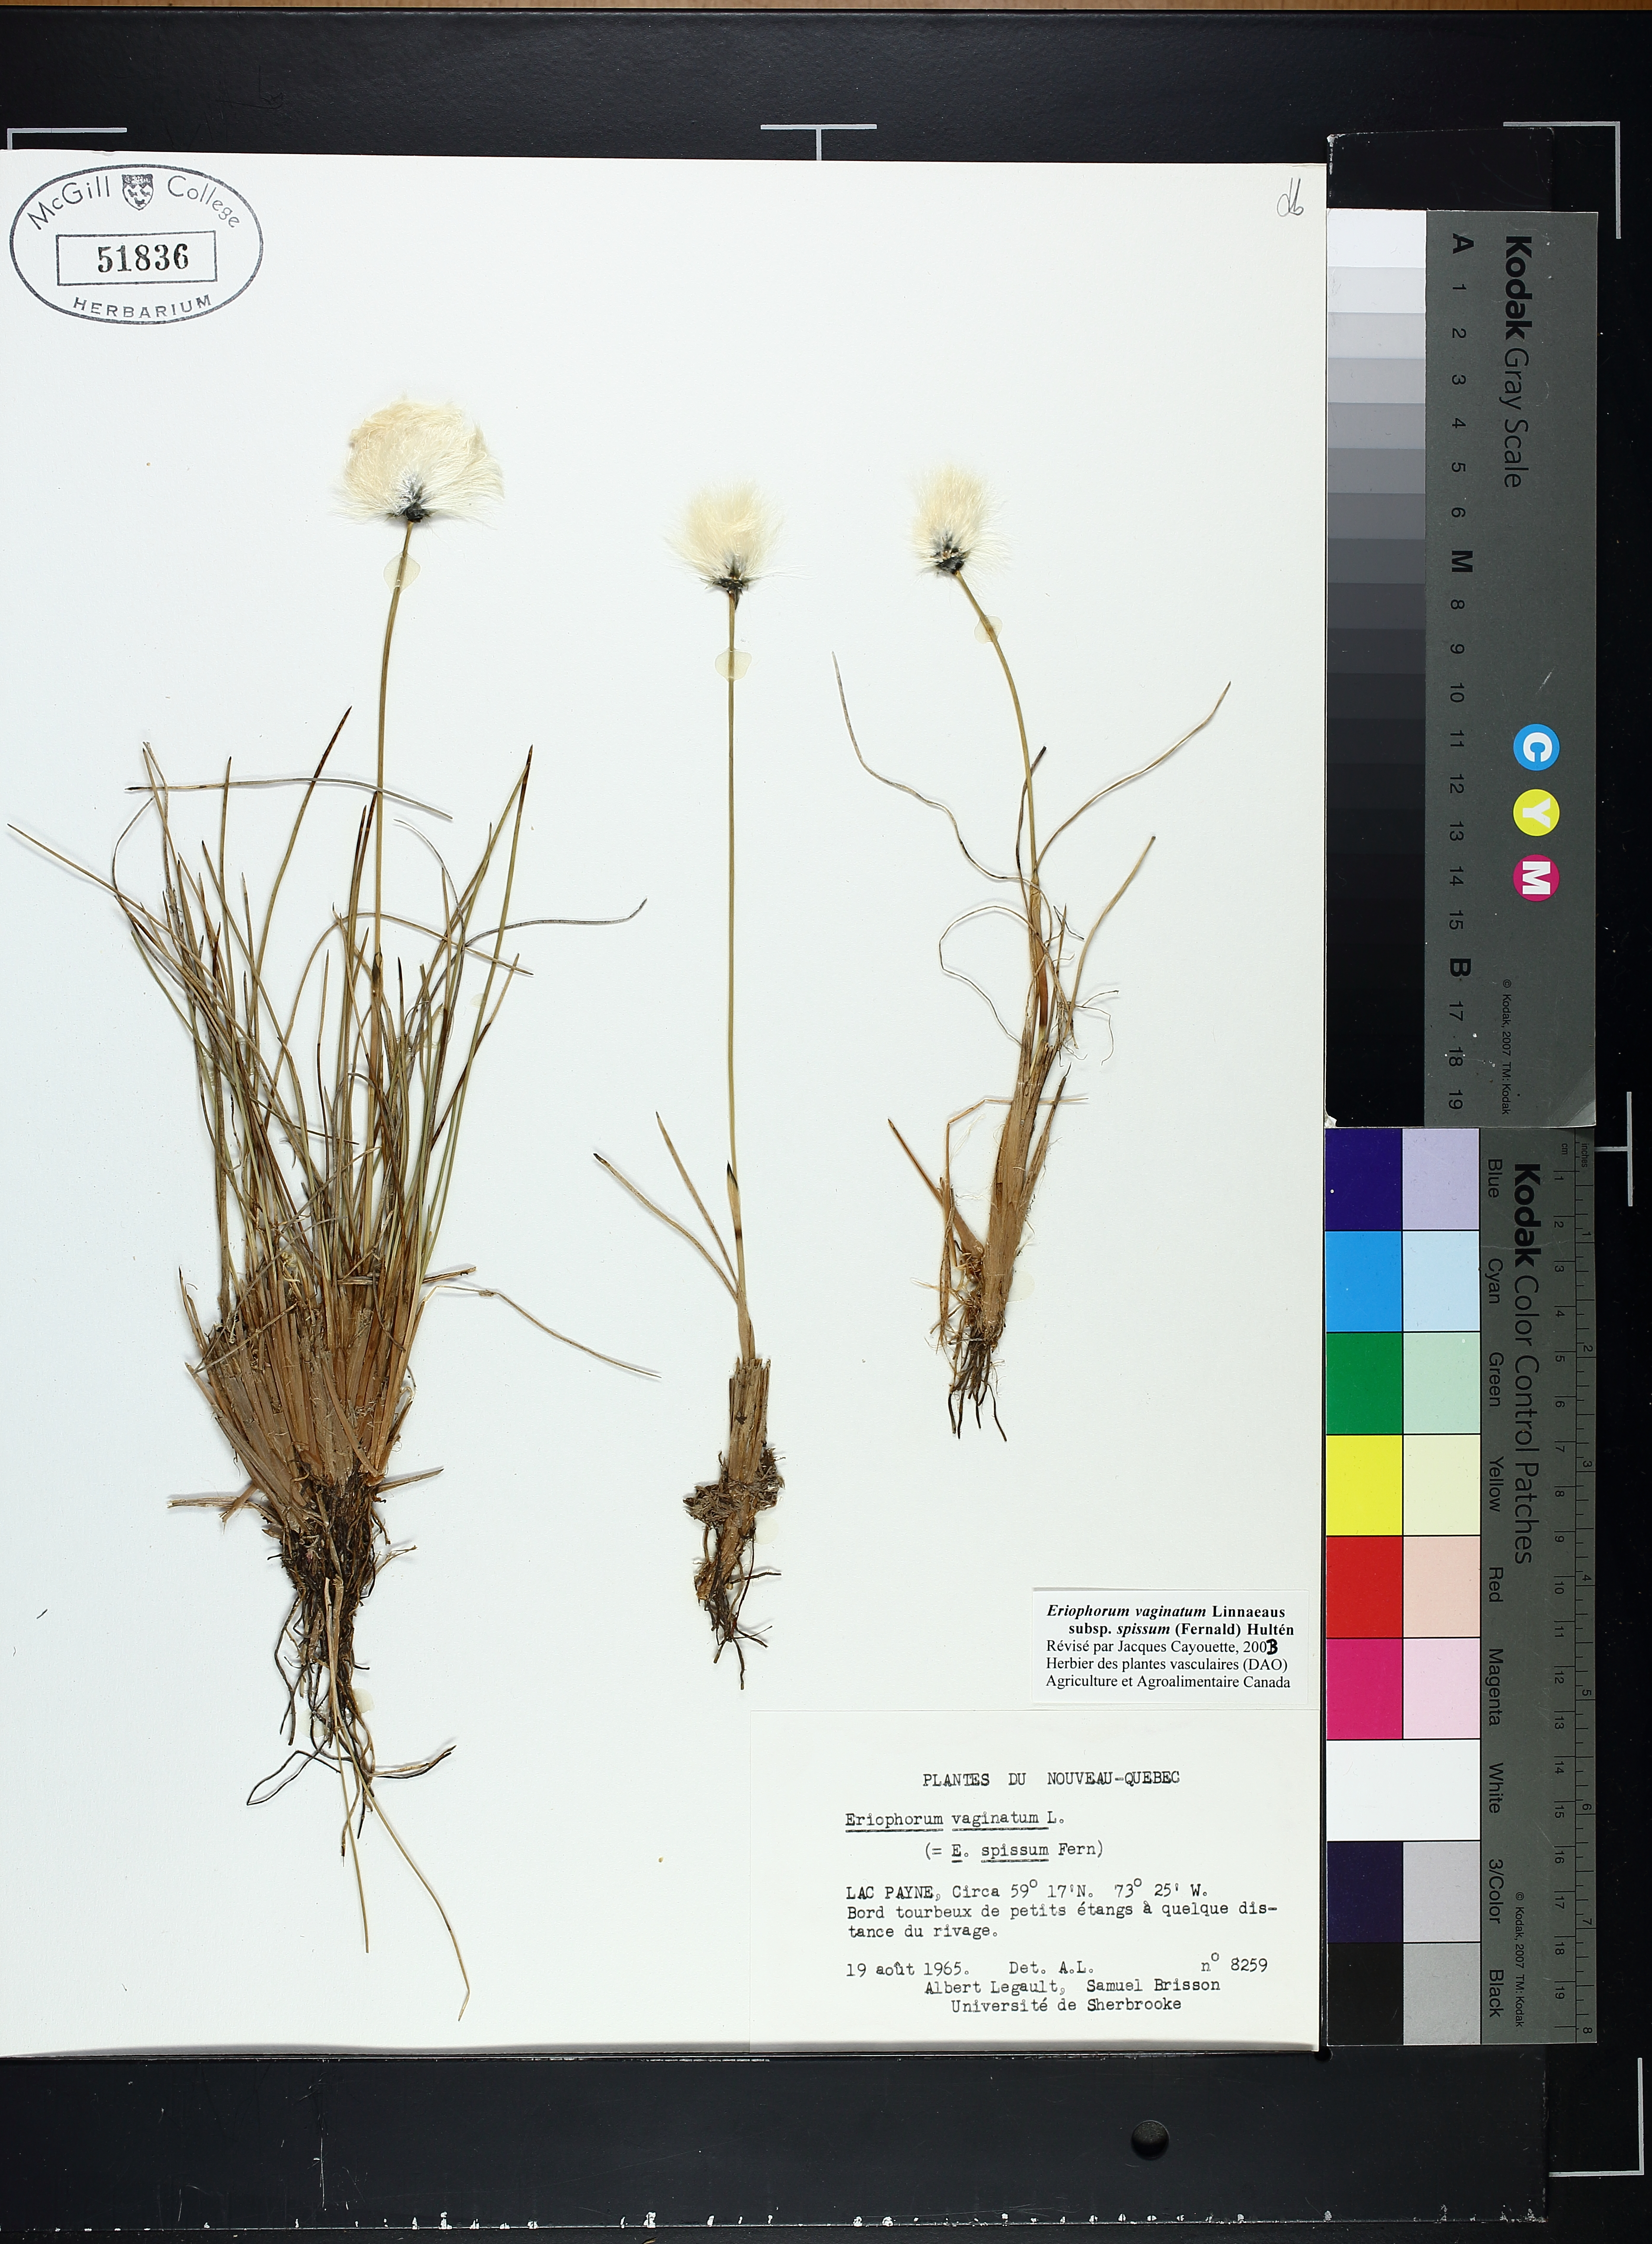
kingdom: Plantae
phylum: Tracheophyta
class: Liliopsida
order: Poales
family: Cyperaceae
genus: Eriophorum
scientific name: Eriophorum vaginatum
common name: Hare's-tail cottongrass
